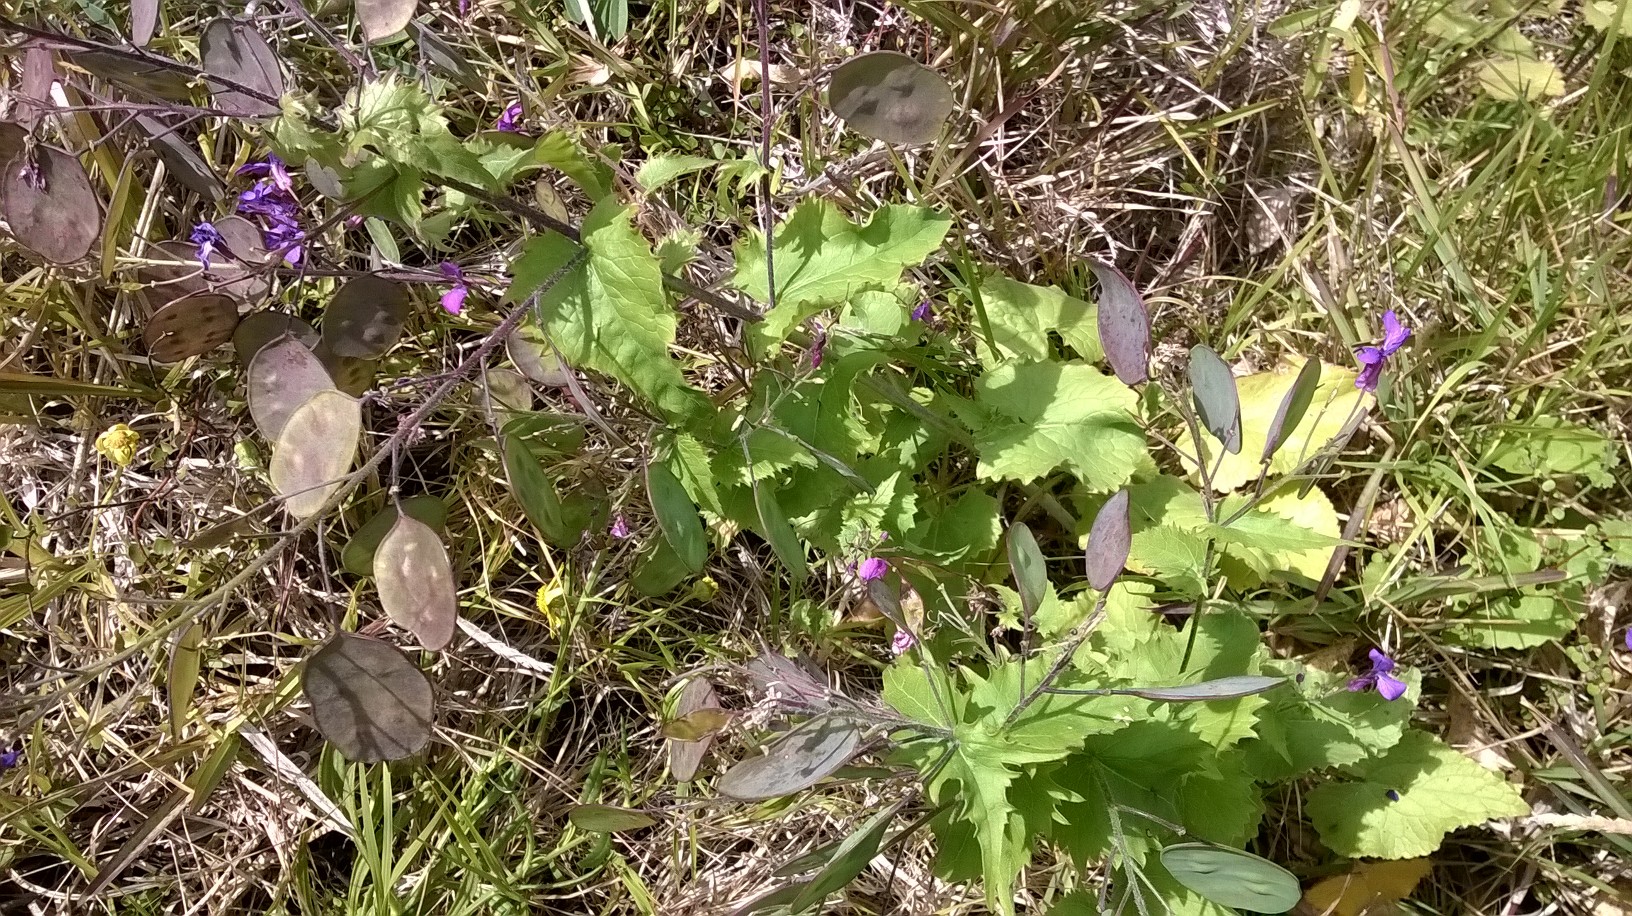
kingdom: Plantae
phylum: Tracheophyta
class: Magnoliopsida
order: Brassicales
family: Brassicaceae
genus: Lunaria
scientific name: Lunaria annua
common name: Honesty
